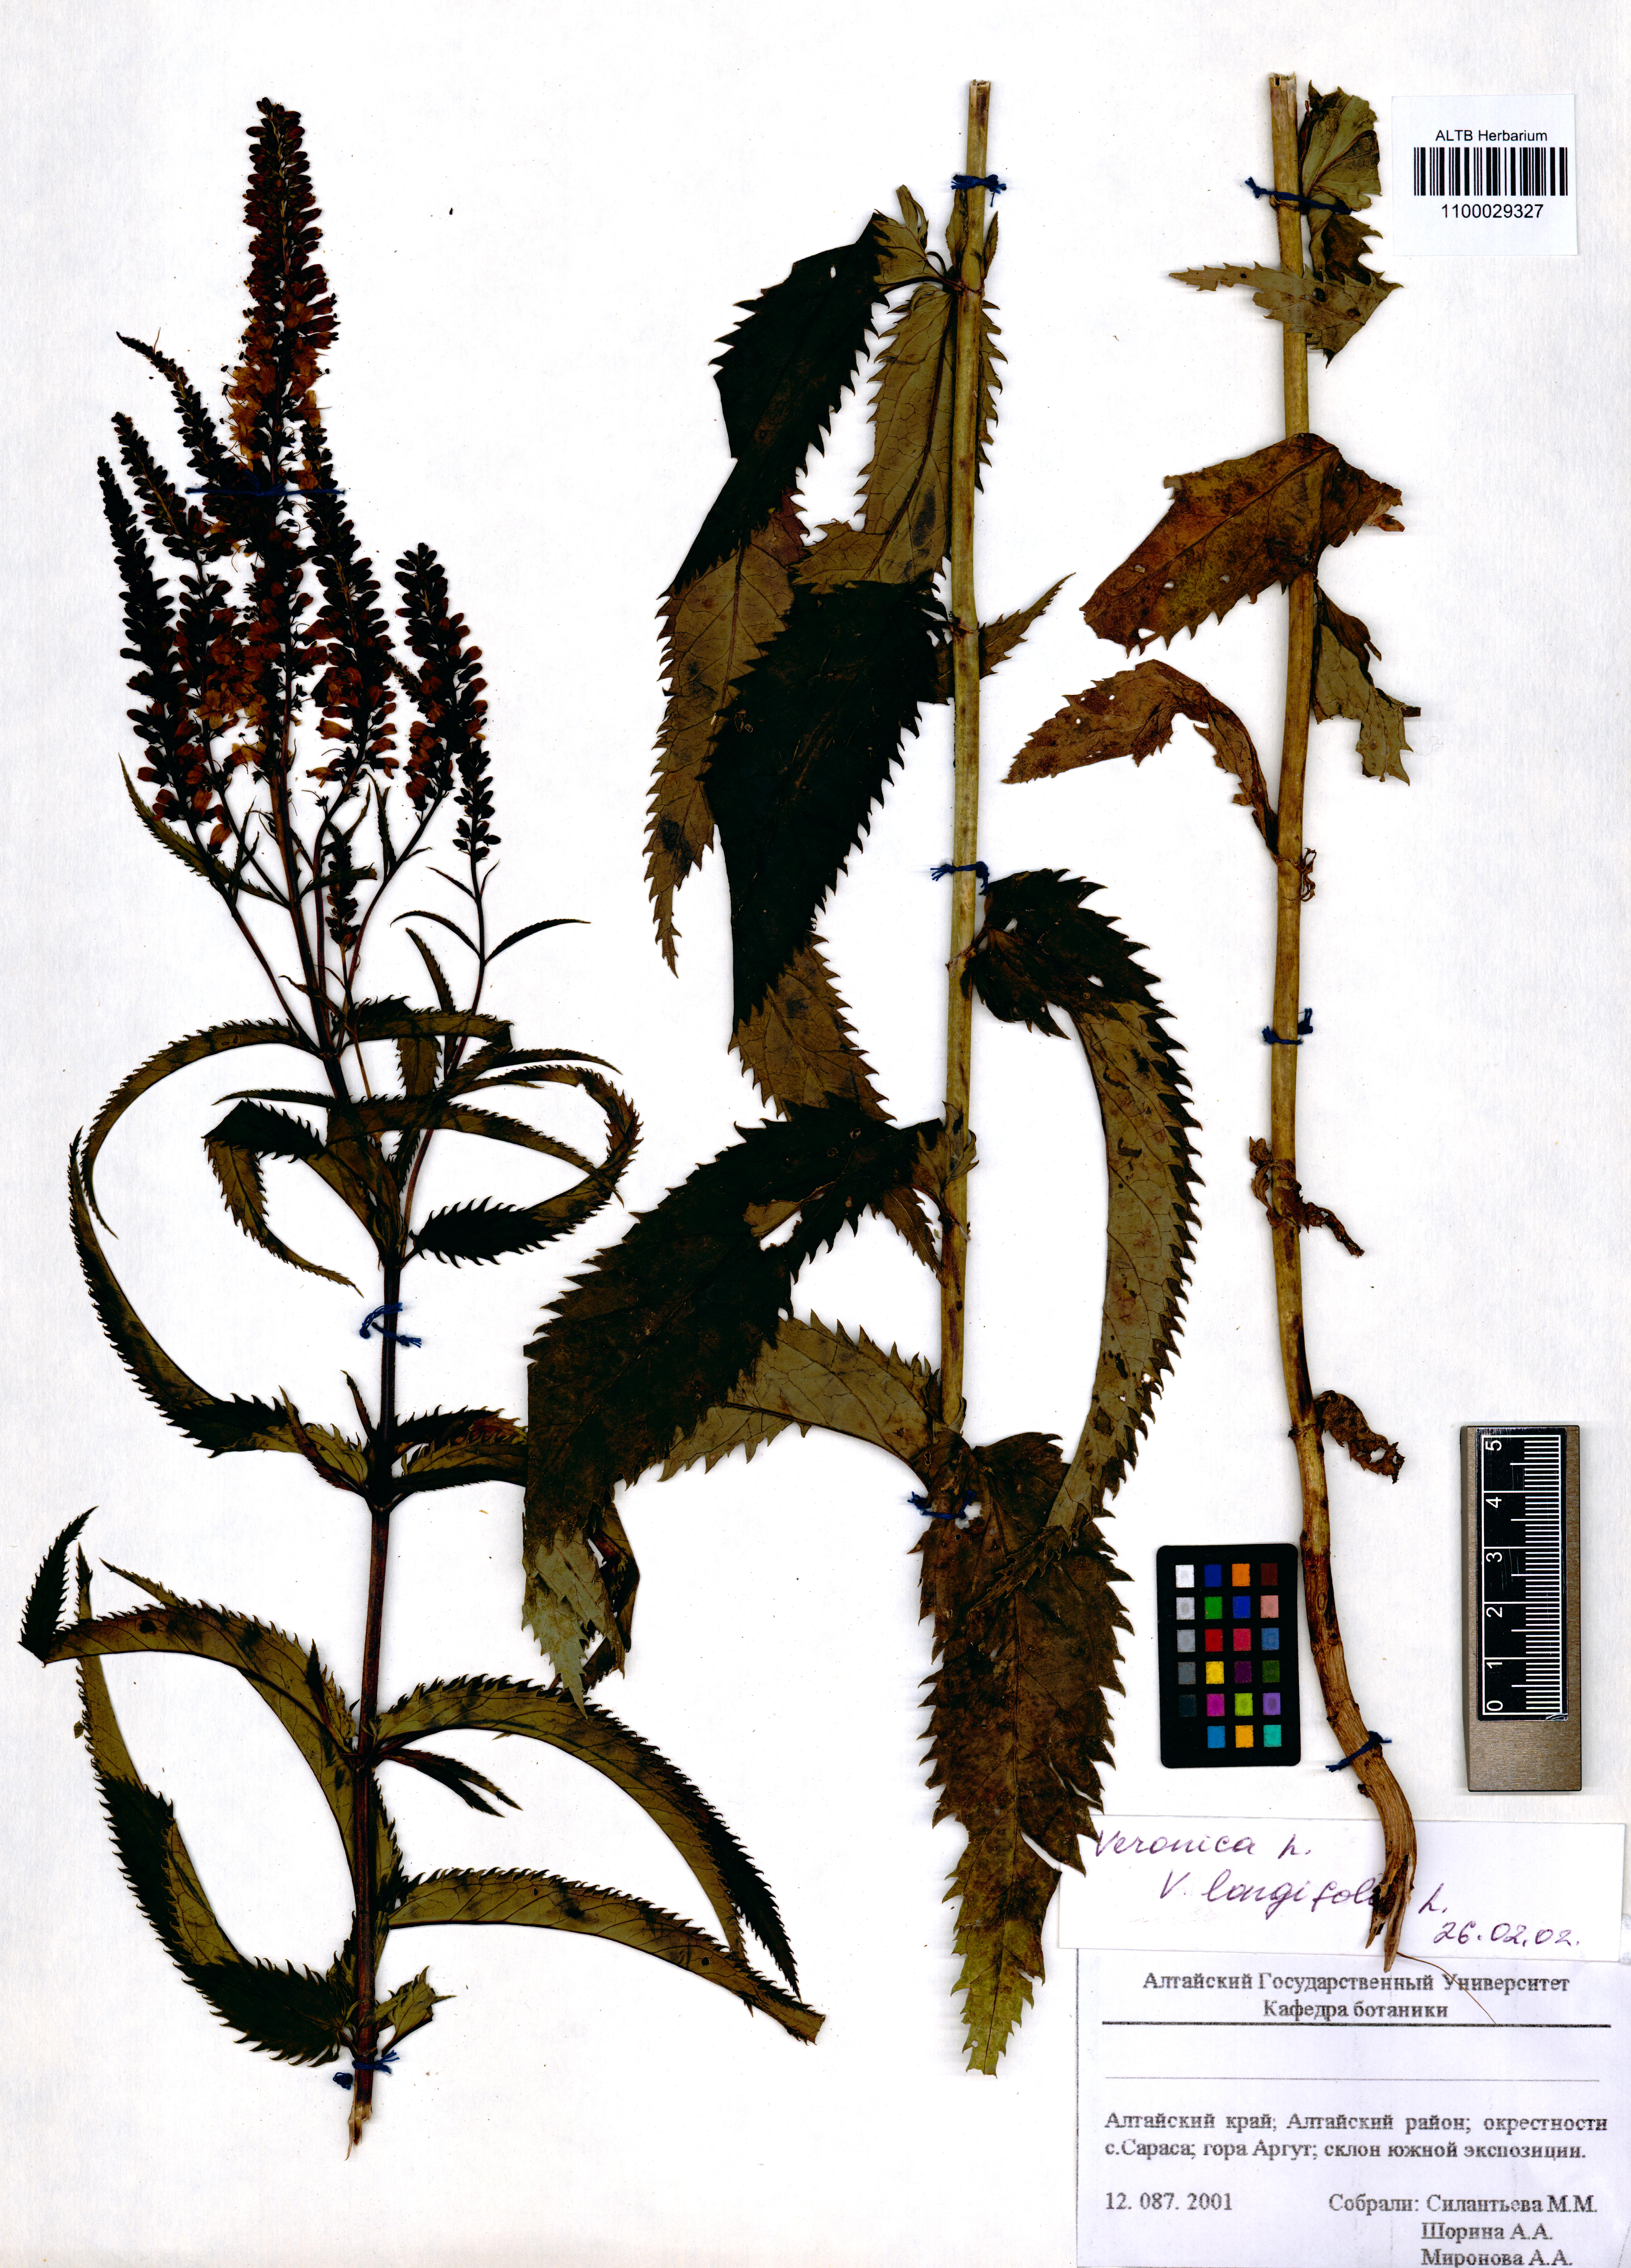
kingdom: Plantae
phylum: Tracheophyta
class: Magnoliopsida
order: Lamiales
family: Plantaginaceae
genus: Veronica
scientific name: Veronica longifolia
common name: Garden speedwell
